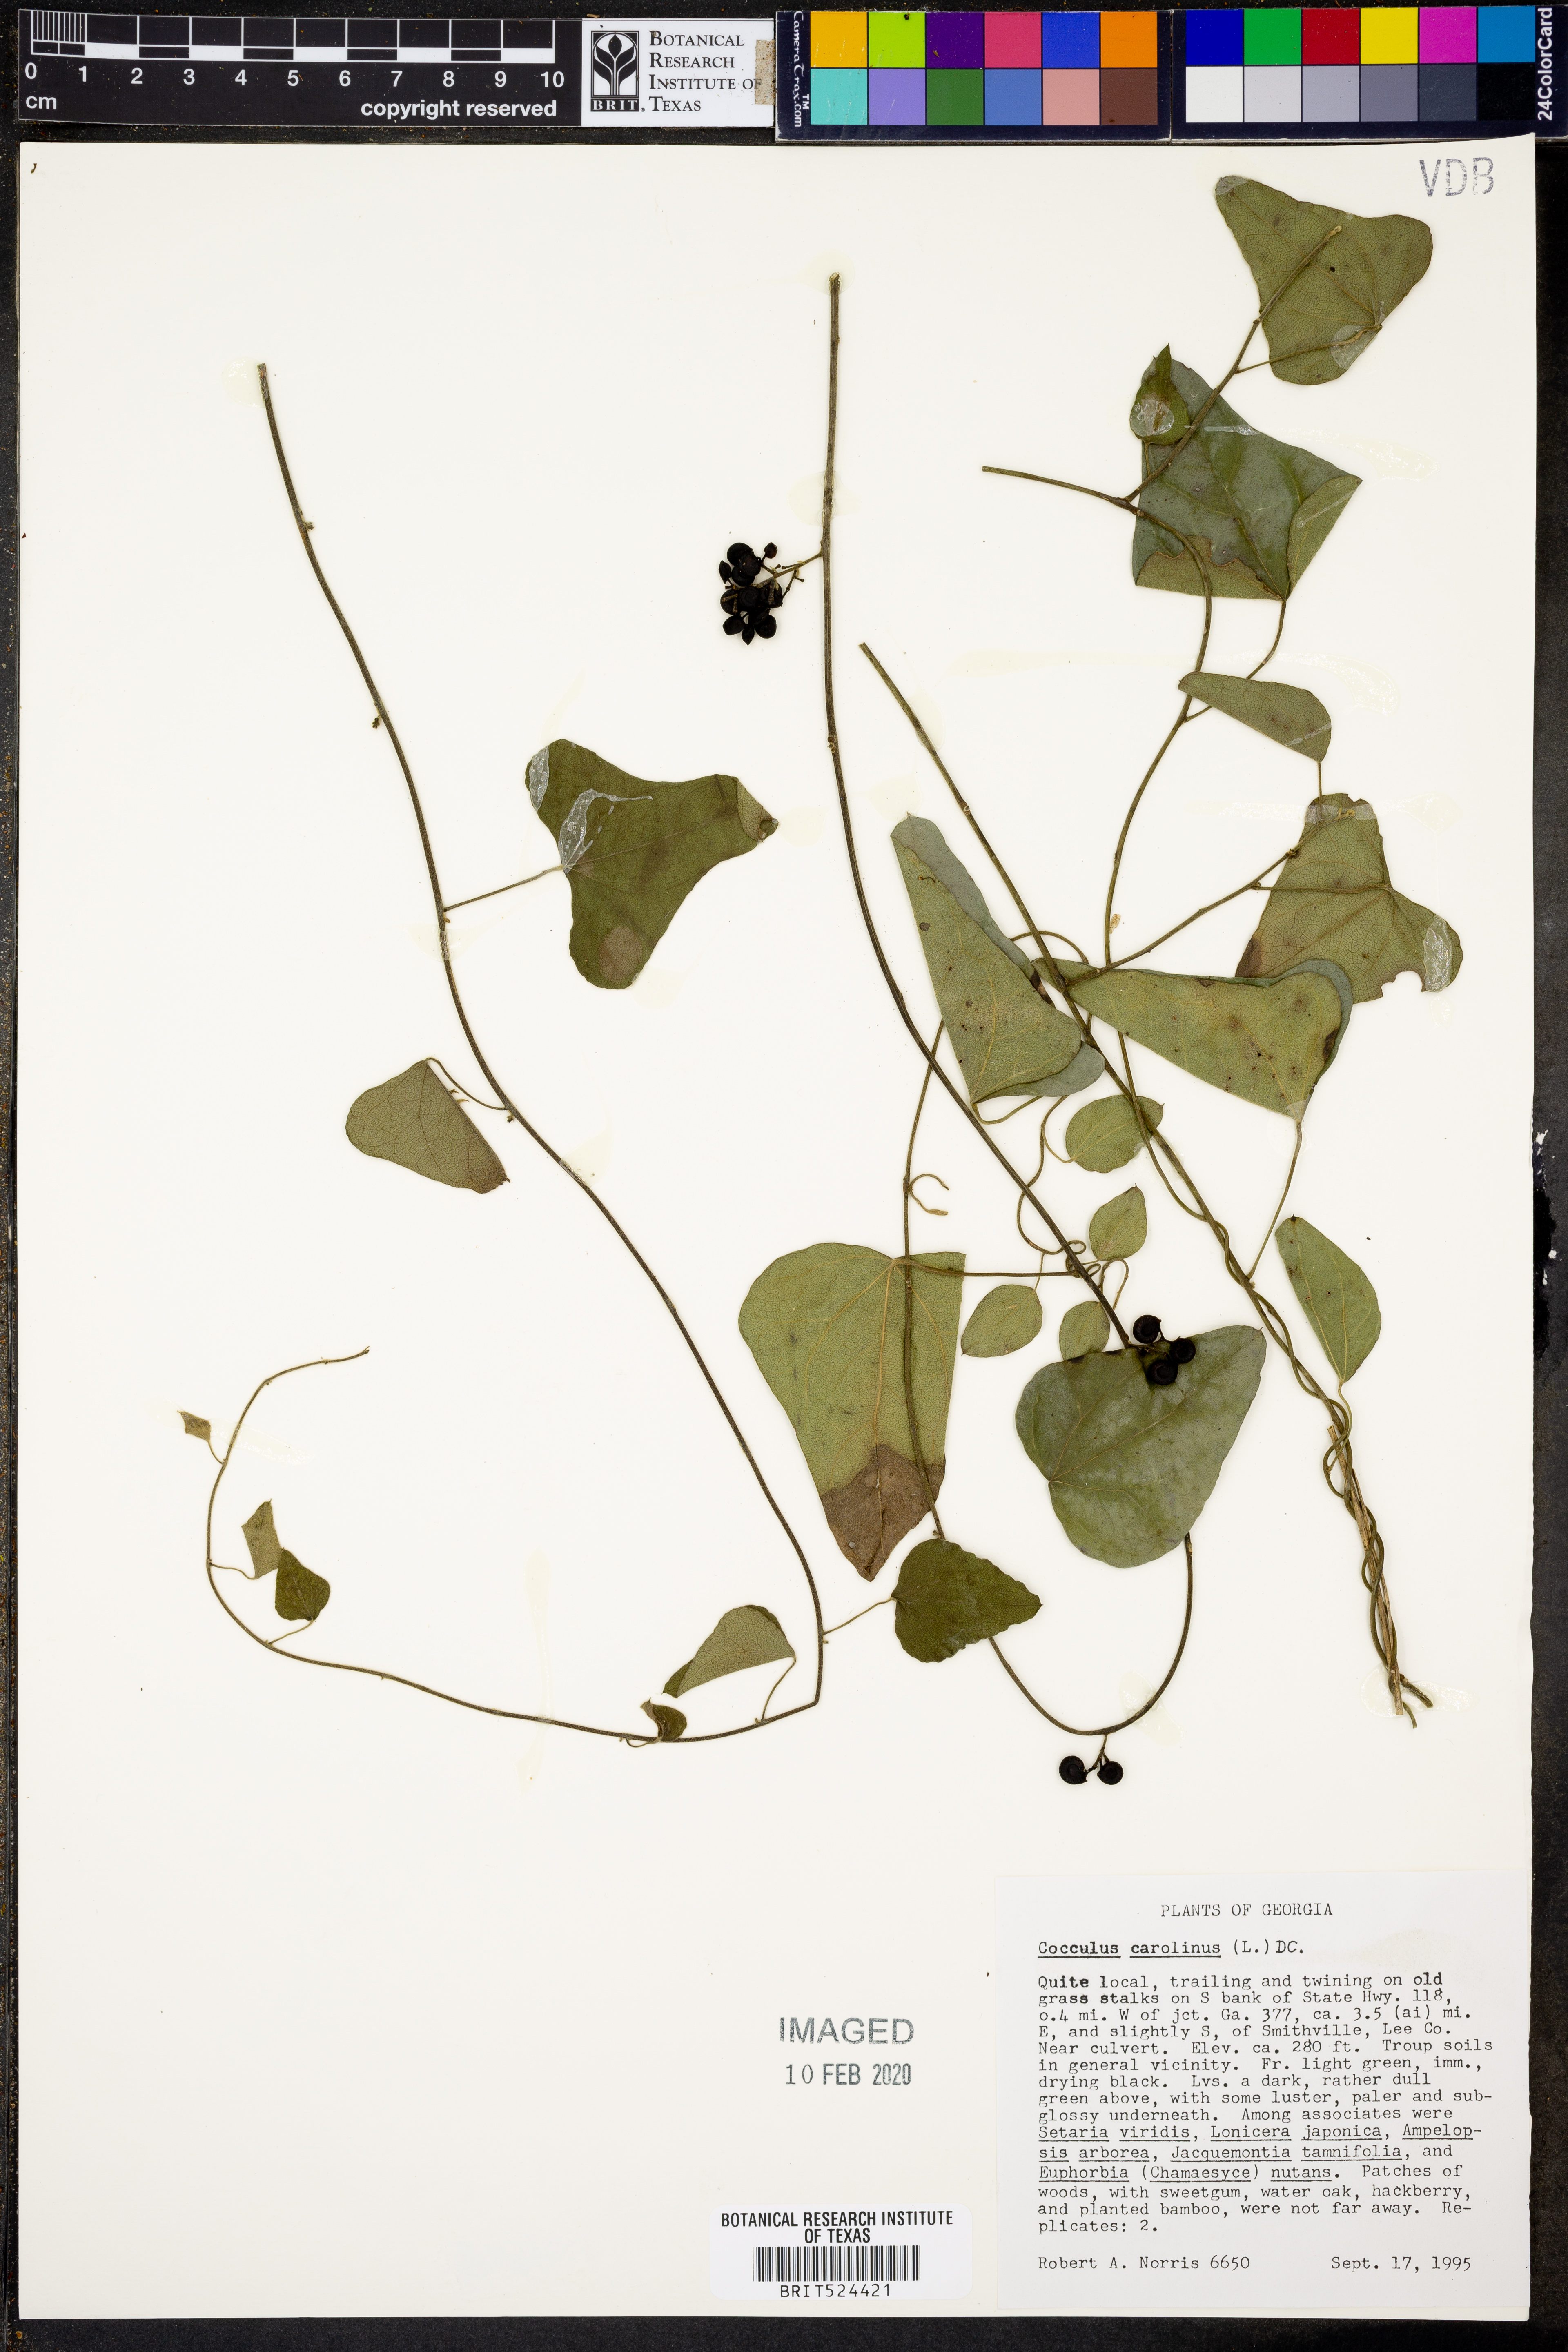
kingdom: Plantae
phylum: Tracheophyta
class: Magnoliopsida
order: Ranunculales
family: Menispermaceae
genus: Cocculus
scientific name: Cocculus carolinus
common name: Carolina moonseed
